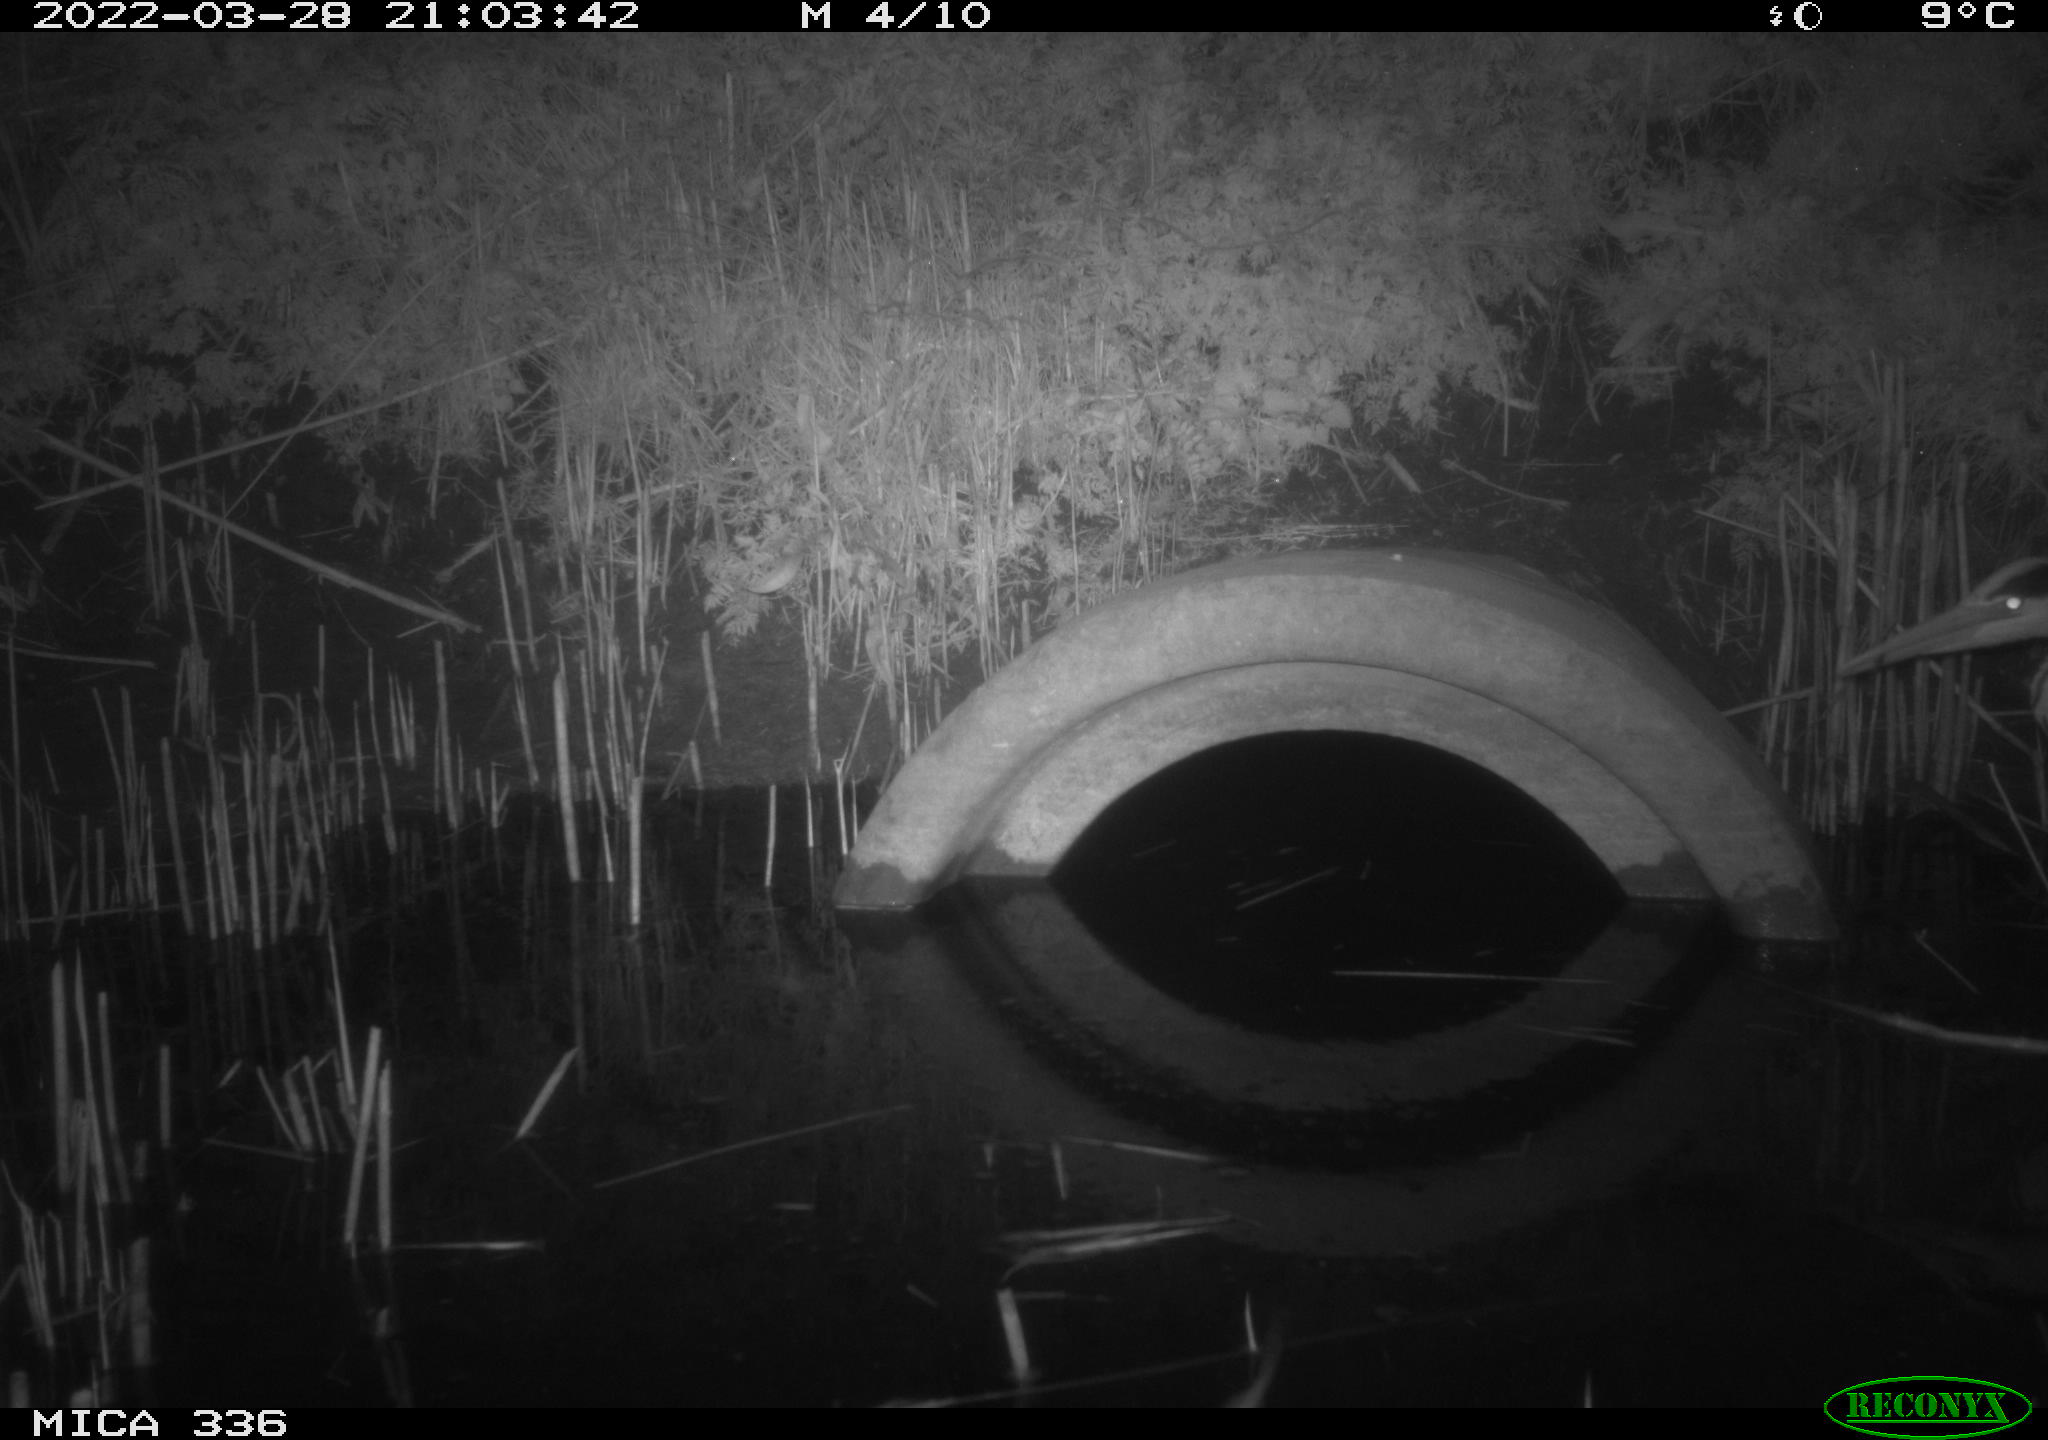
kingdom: Animalia
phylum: Chordata
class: Aves
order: Pelecaniformes
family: Ardeidae
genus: Ardea
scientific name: Ardea cinerea
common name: Grey heron
